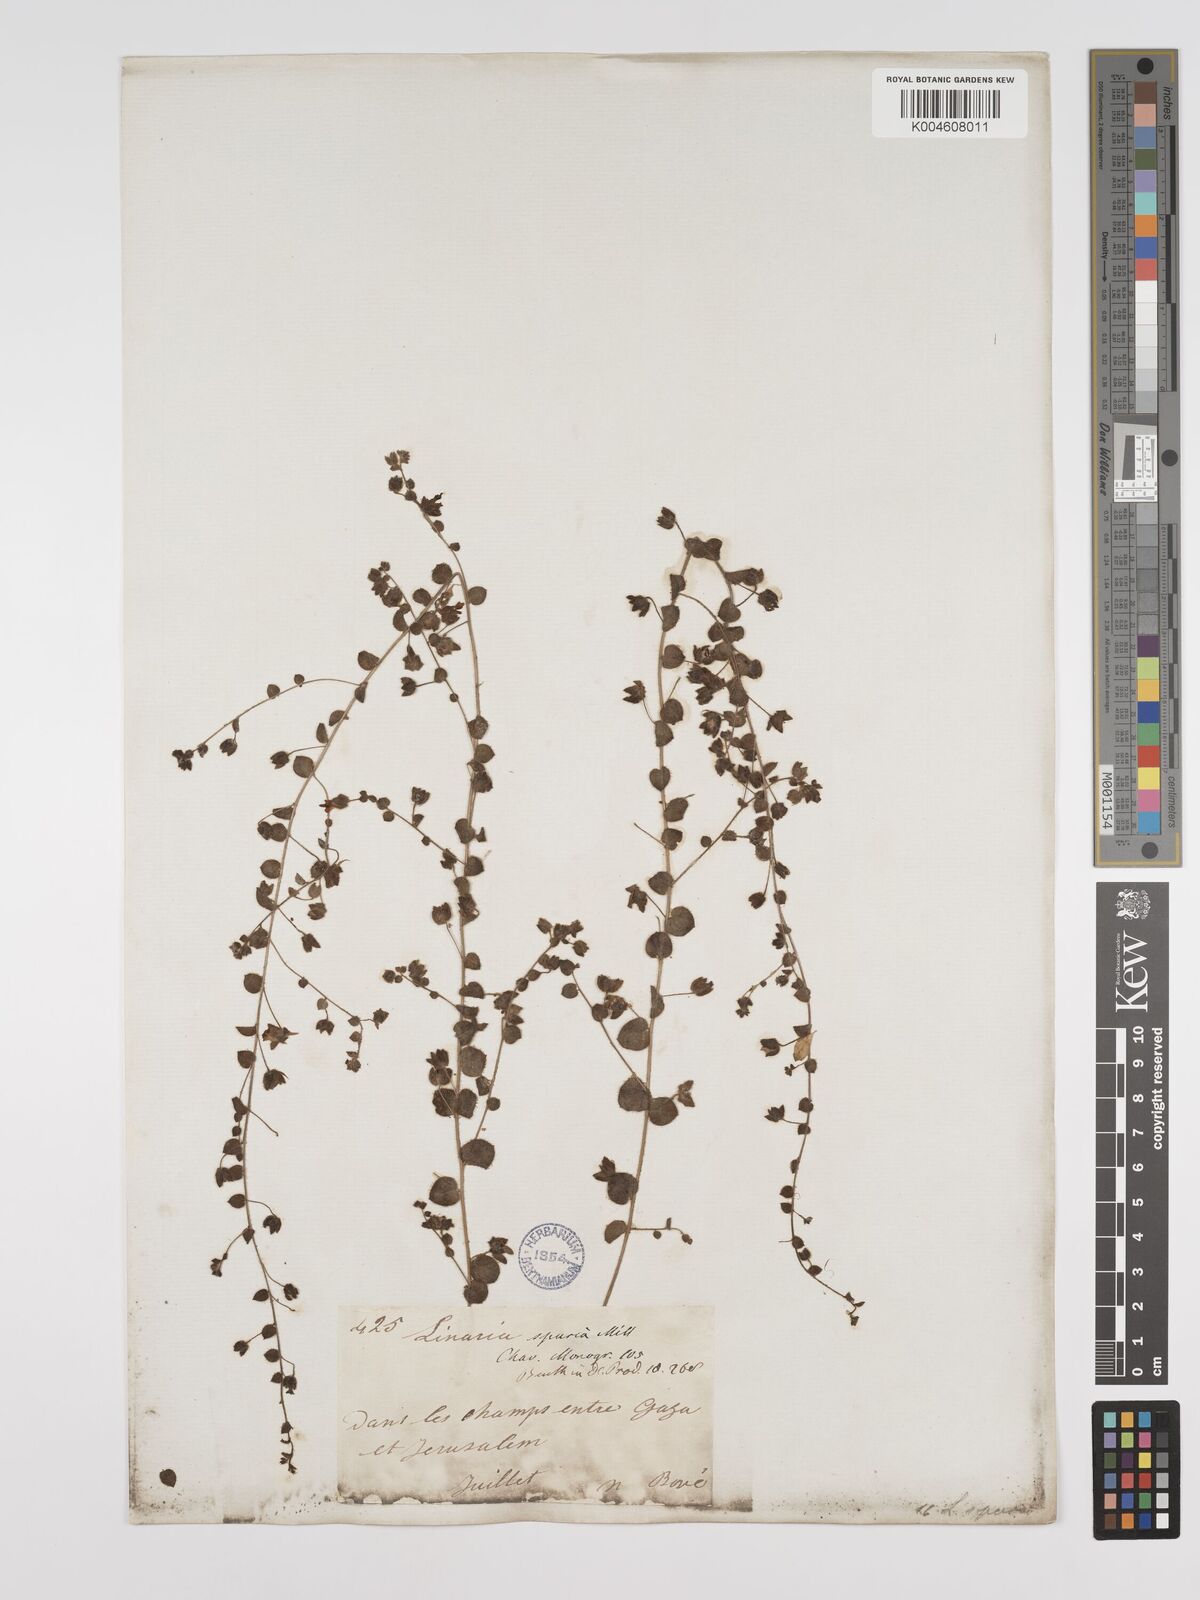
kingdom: Plantae
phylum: Tracheophyta
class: Magnoliopsida
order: Lamiales
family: Plantaginaceae
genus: Kickxia
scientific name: Kickxia spuria
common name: Round-leaved fluellen
